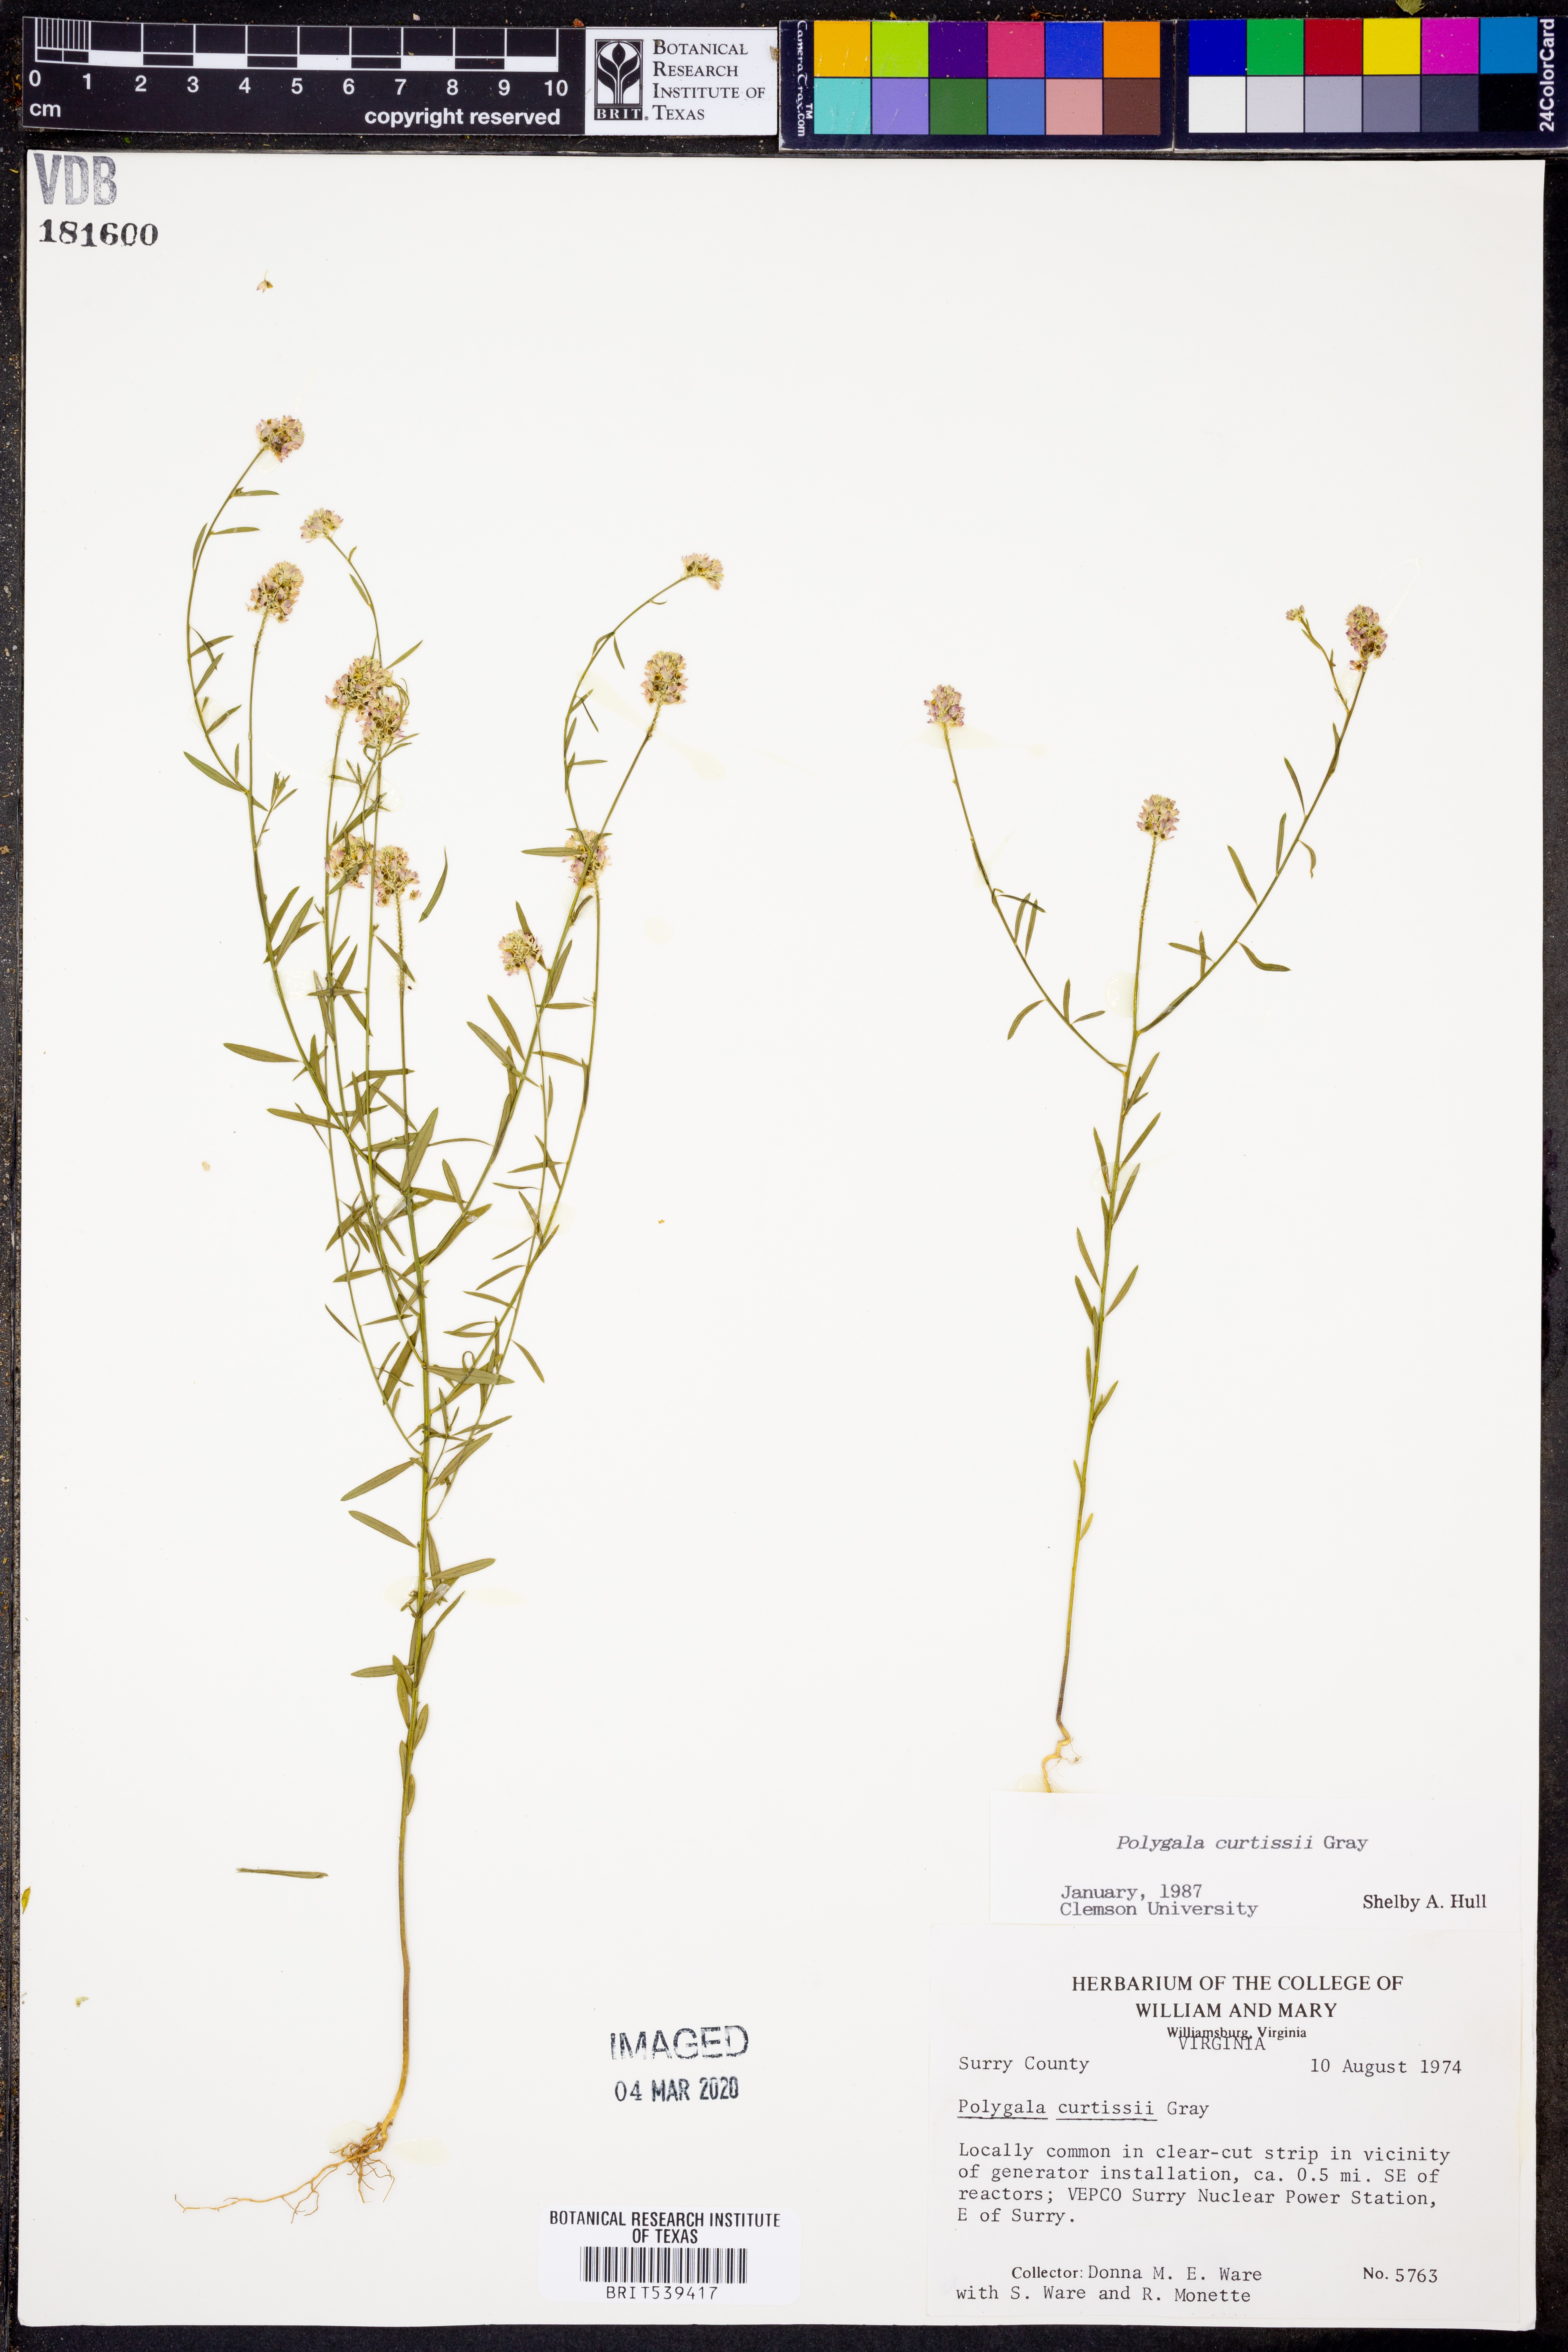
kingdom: Plantae
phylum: Tracheophyta
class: Magnoliopsida
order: Fabales
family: Polygalaceae
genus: Polygala
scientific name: Polygala curtissii
